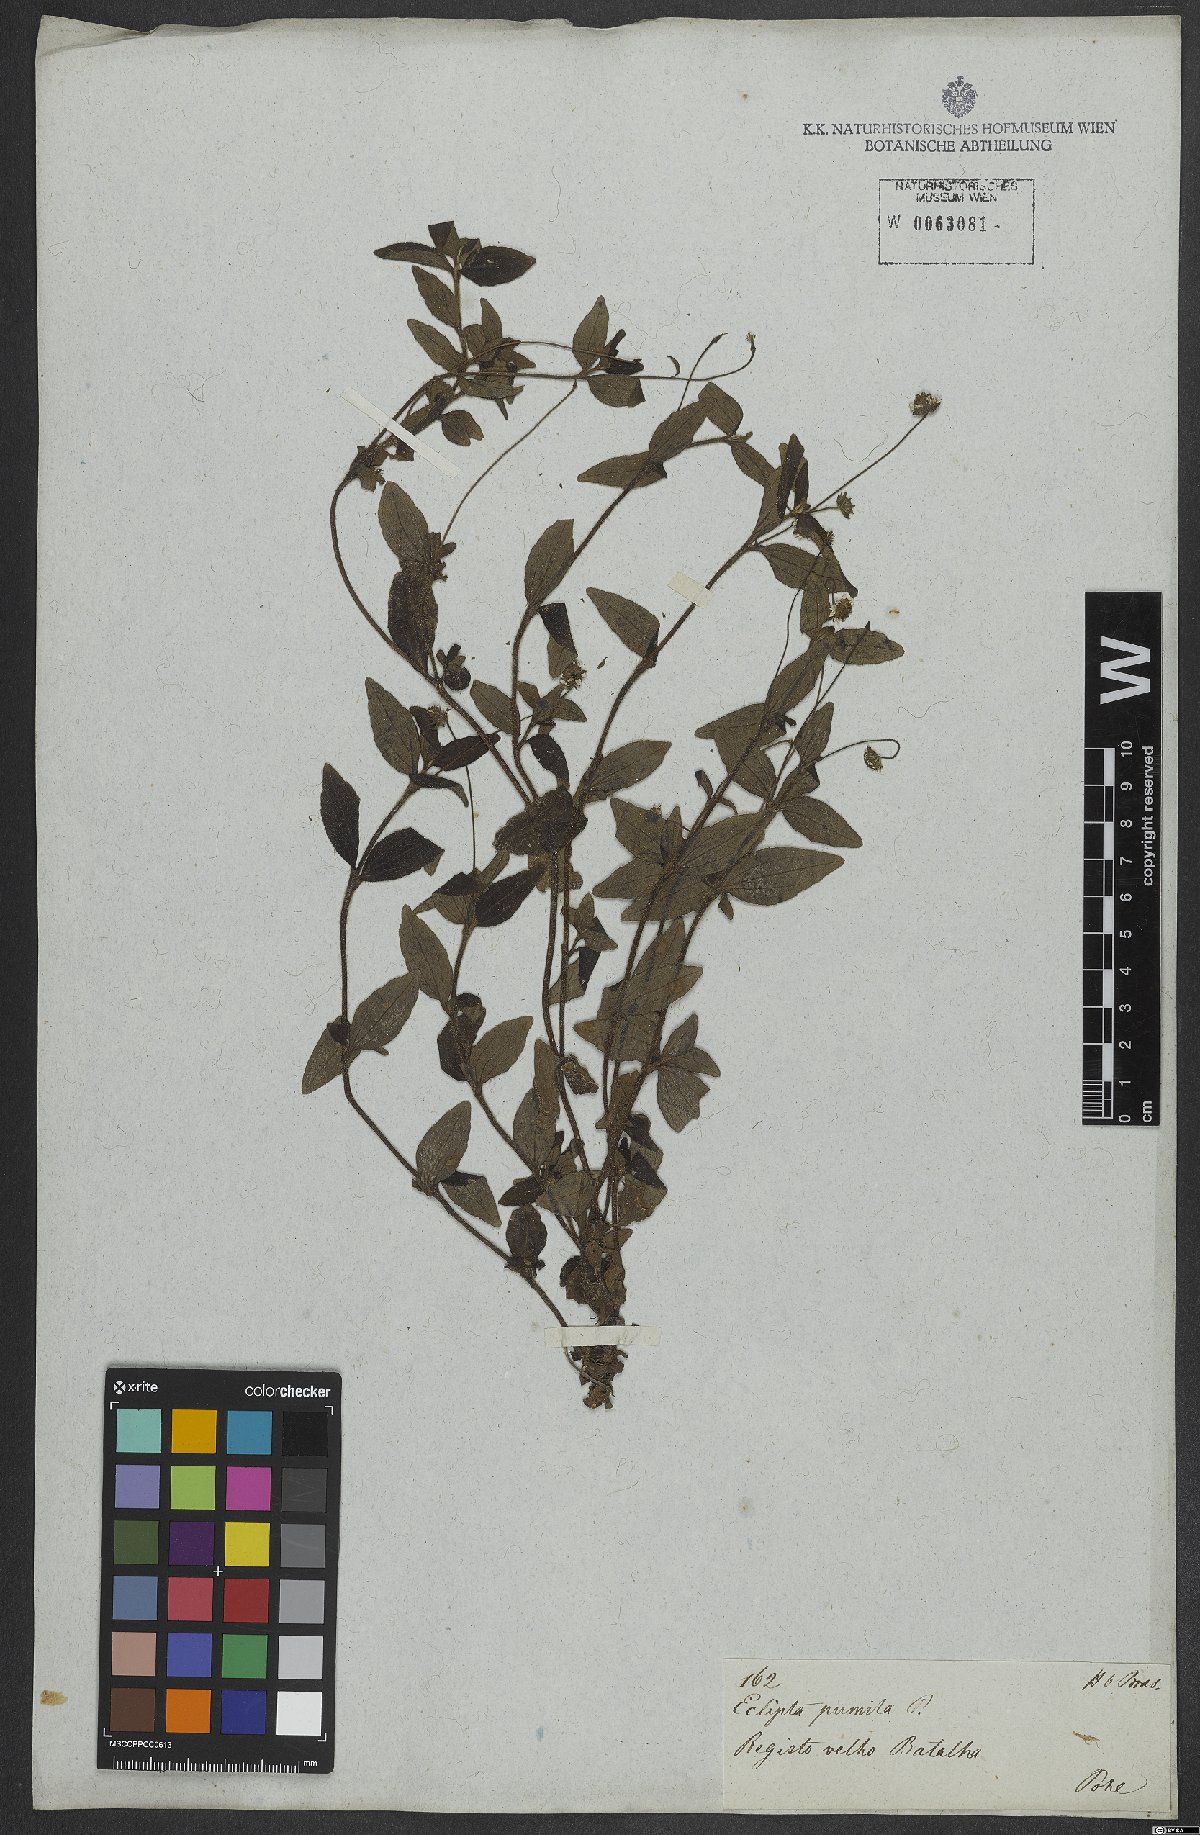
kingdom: Plantae
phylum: Tracheophyta
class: Magnoliopsida
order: Asterales
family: Asteraceae
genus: Eclipta
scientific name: Eclipta alba
